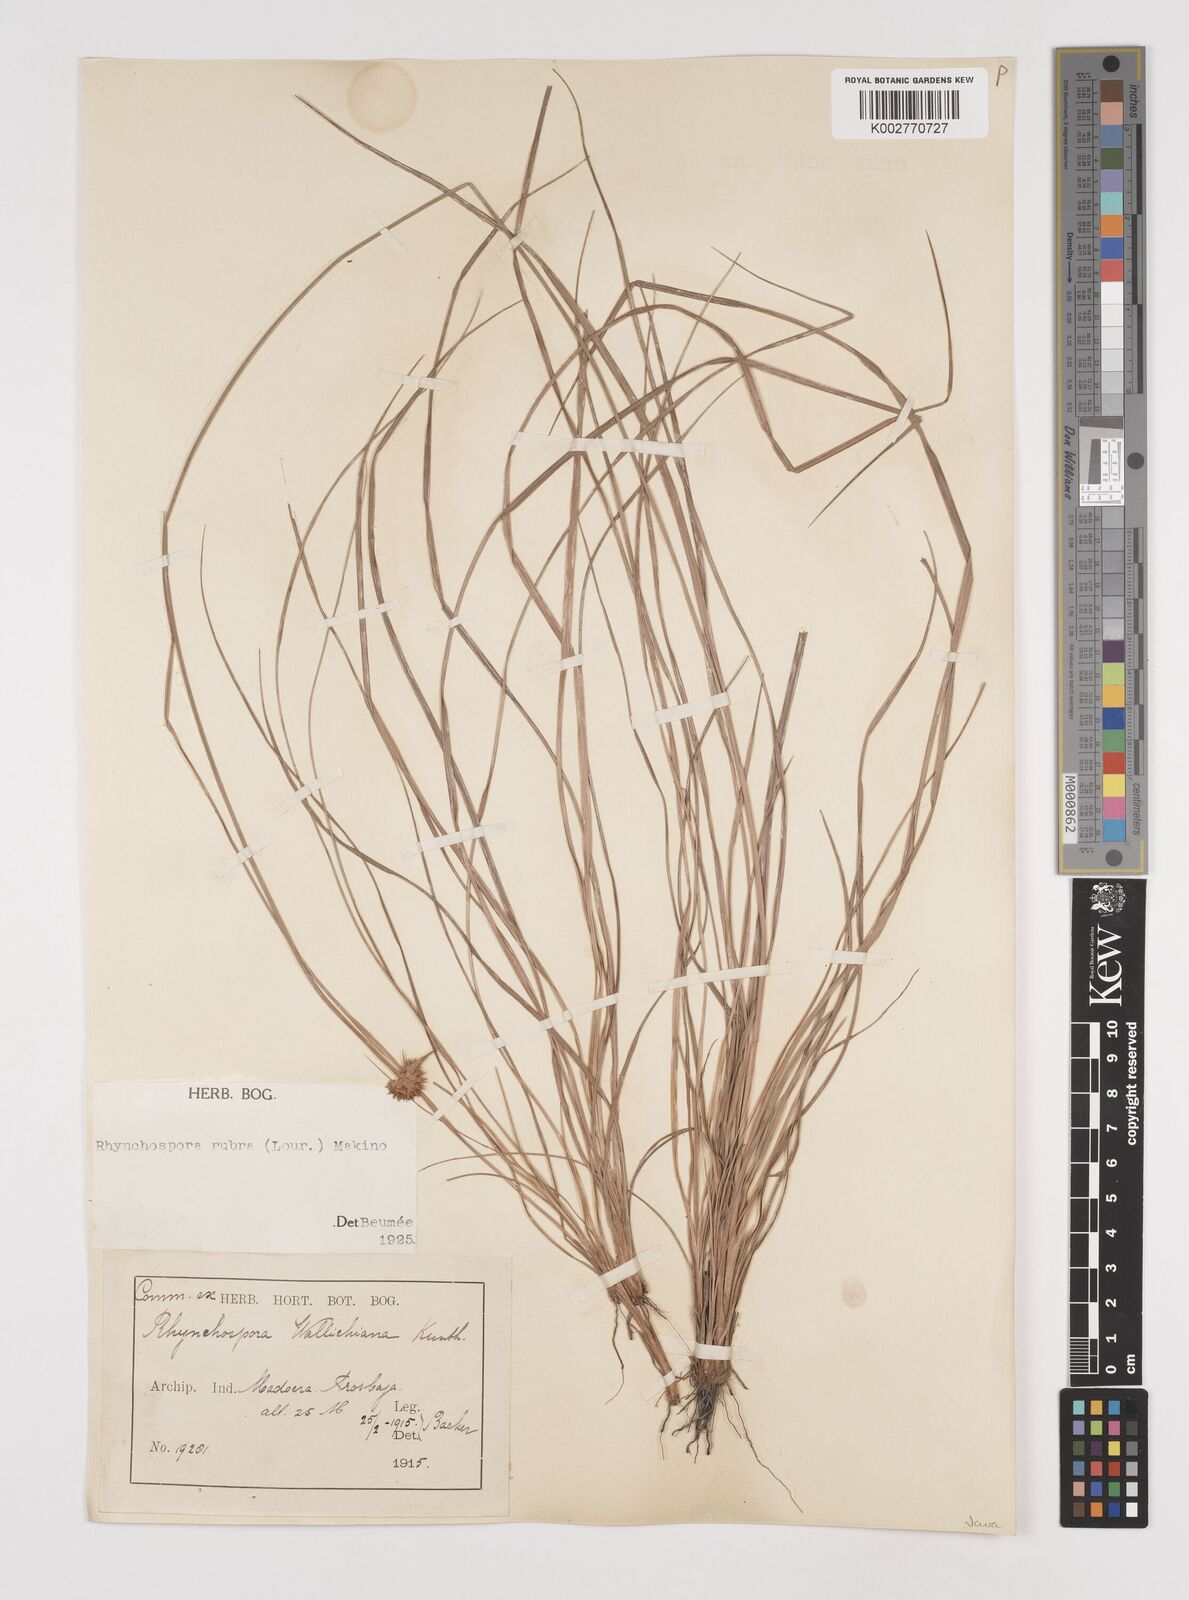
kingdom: Plantae
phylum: Tracheophyta
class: Liliopsida
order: Poales
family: Cyperaceae
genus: Rhynchospora
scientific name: Rhynchospora rubra
